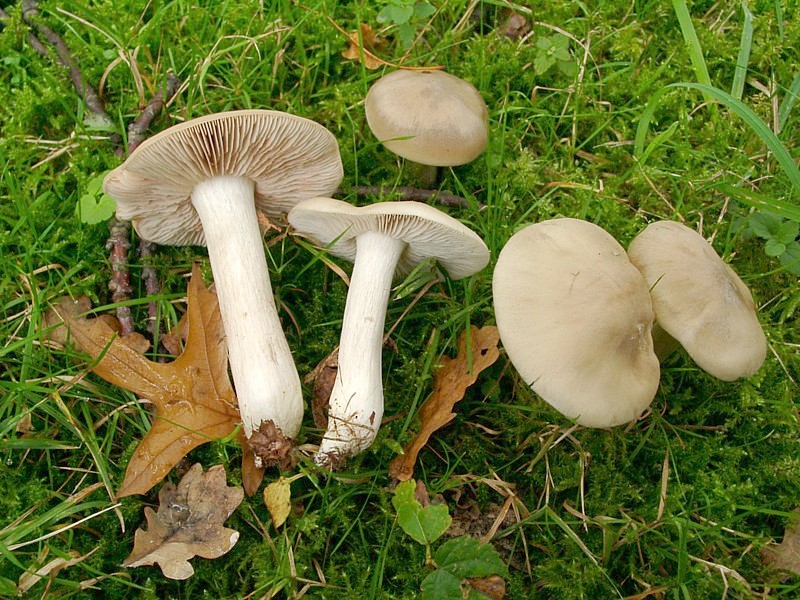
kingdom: Fungi
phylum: Basidiomycota
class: Agaricomycetes
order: Agaricales
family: Entolomataceae
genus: Entoloma
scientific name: Entoloma lividoalbum
